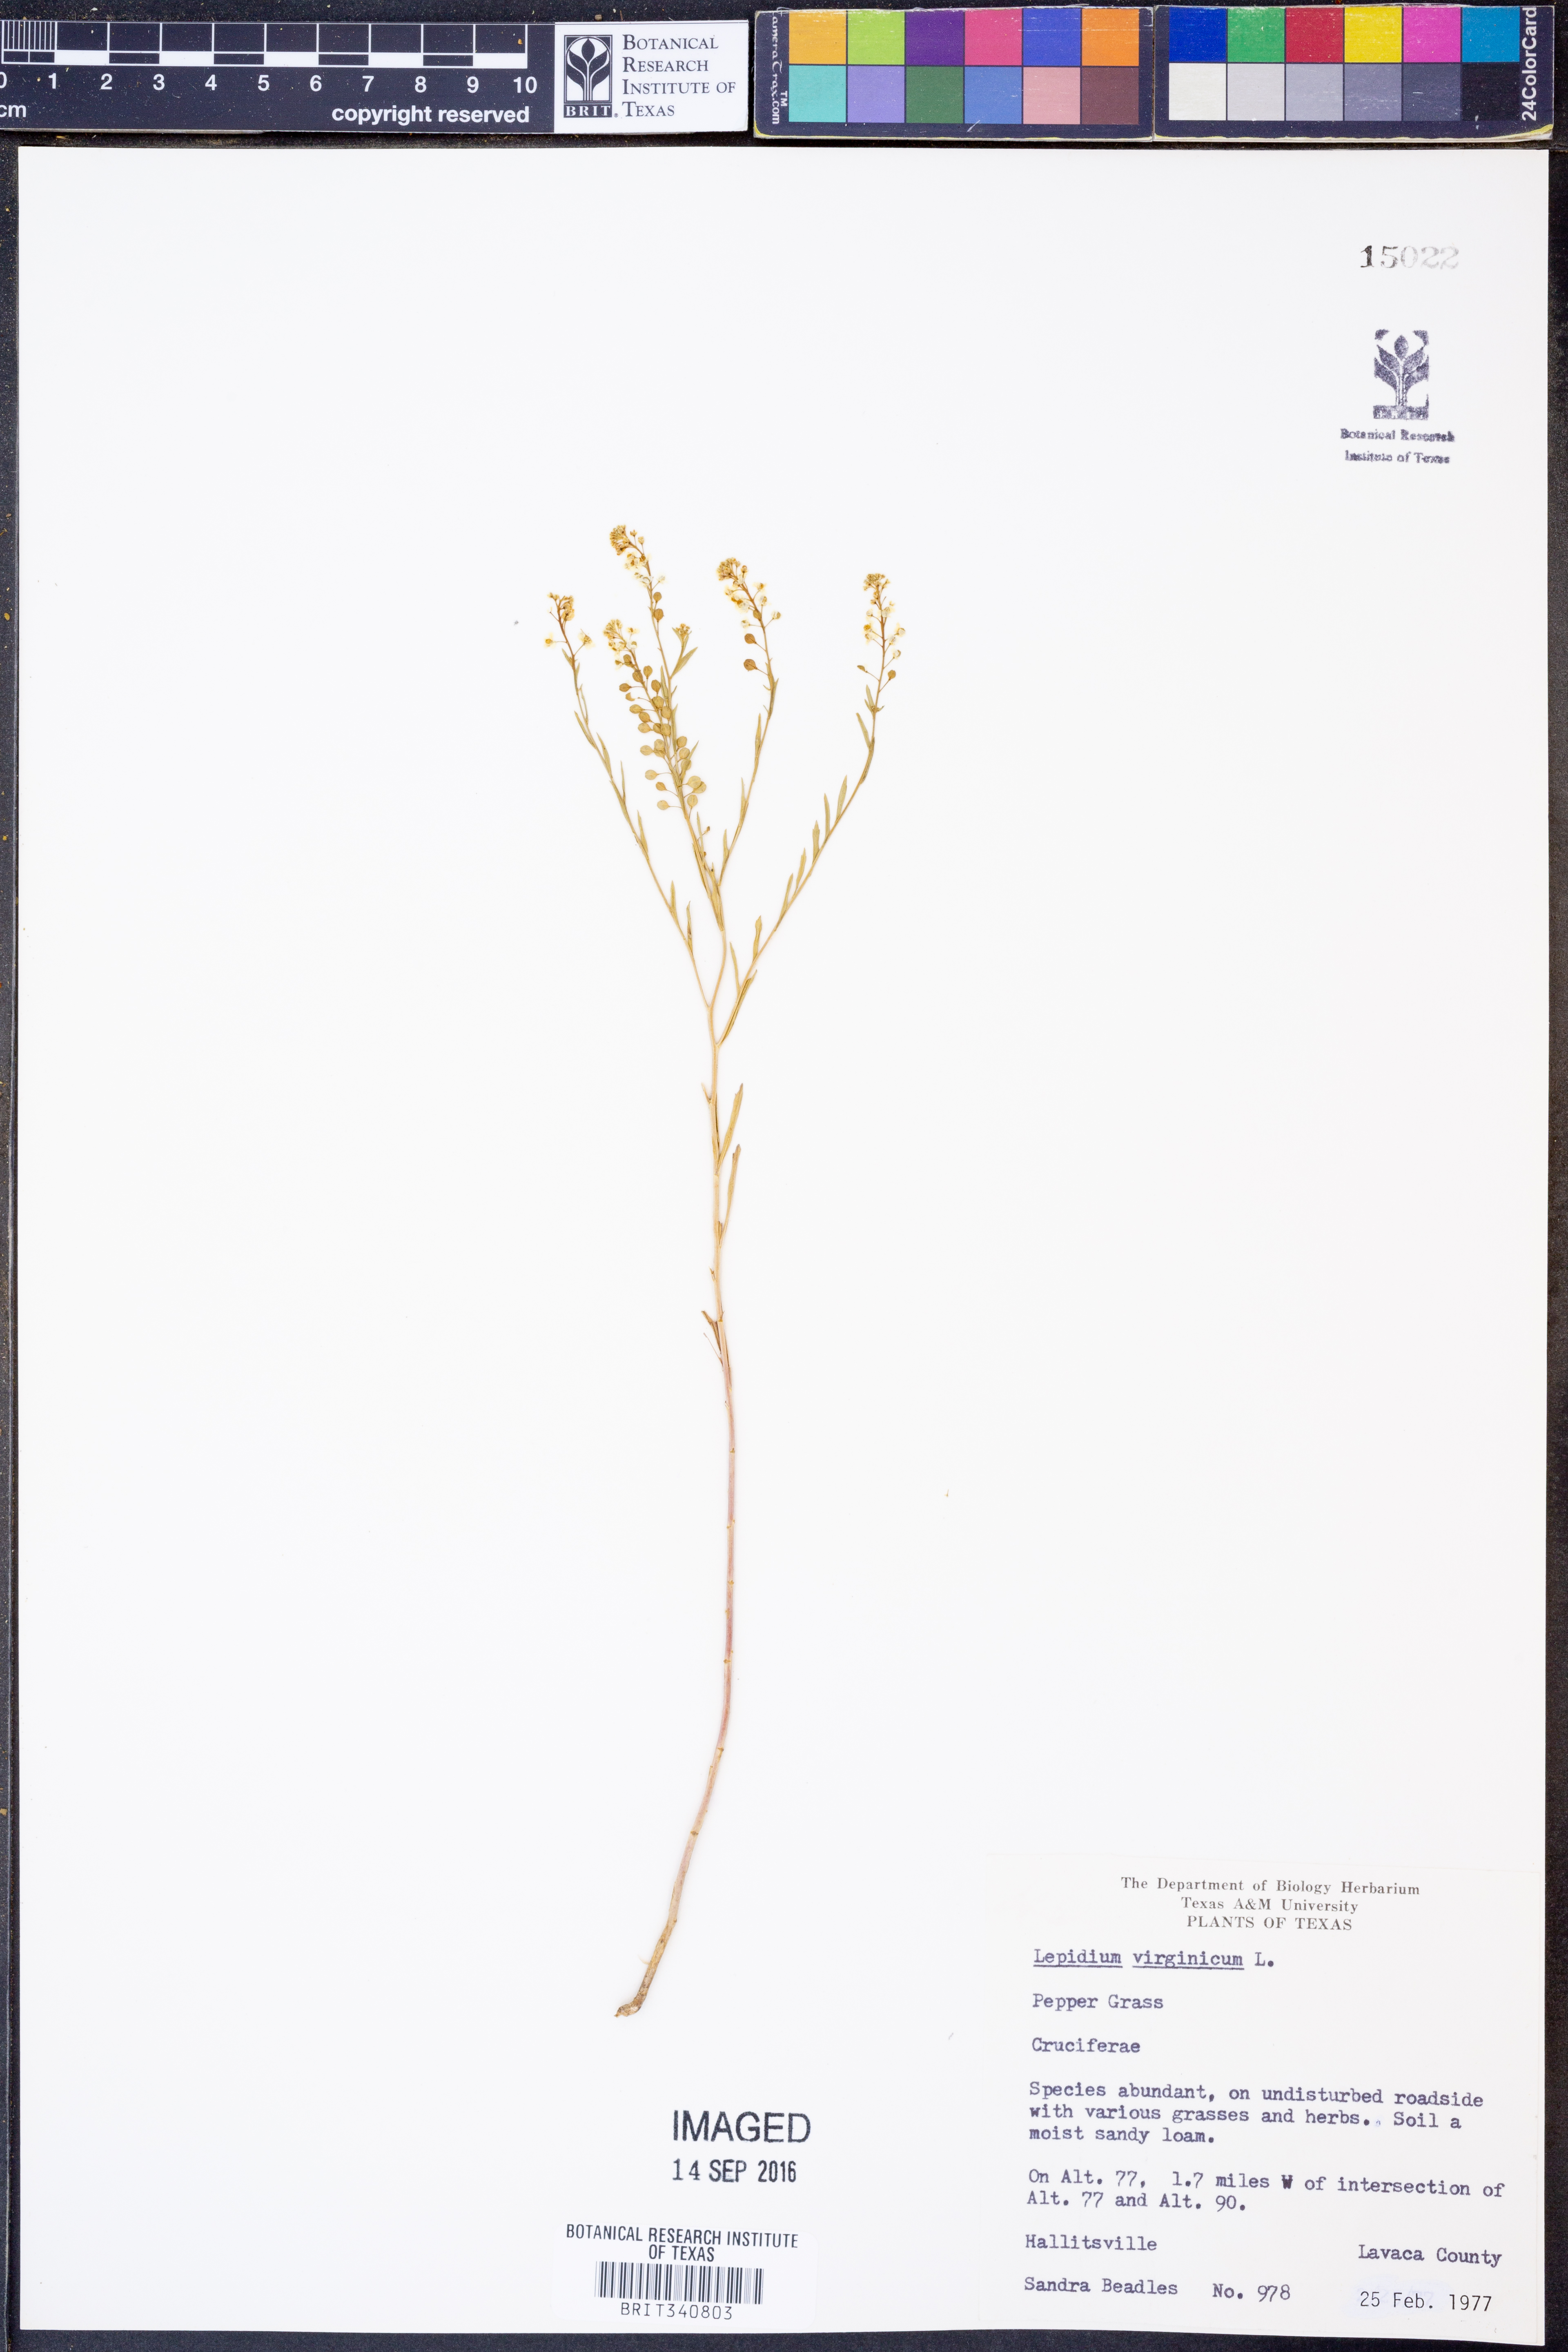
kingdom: Plantae
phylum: Tracheophyta
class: Magnoliopsida
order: Brassicales
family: Brassicaceae
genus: Lepidium
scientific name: Lepidium virginicum
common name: Least pepperwort
